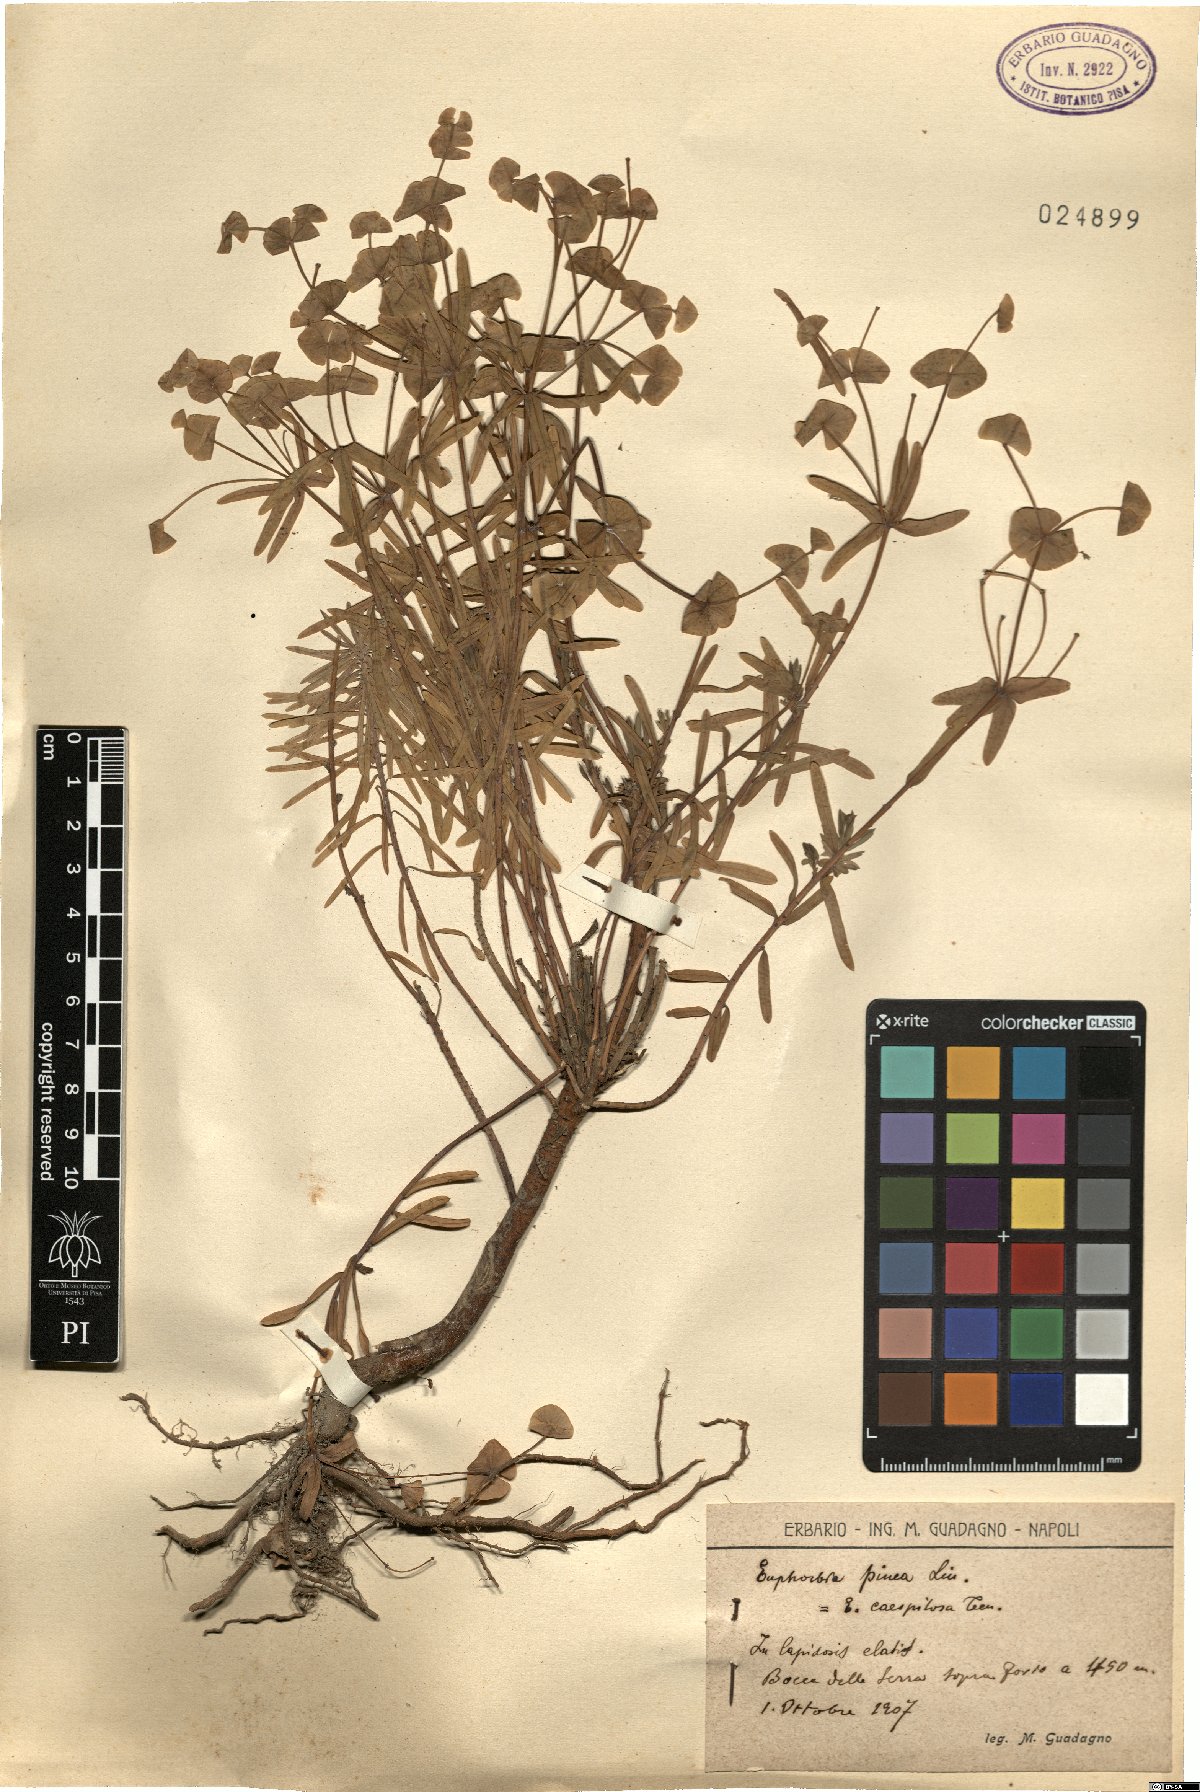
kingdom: Plantae
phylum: Tracheophyta
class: Magnoliopsida
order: Malpighiales
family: Euphorbiaceae
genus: Euphorbia
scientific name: Euphorbia segetalis
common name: Corn spurge
